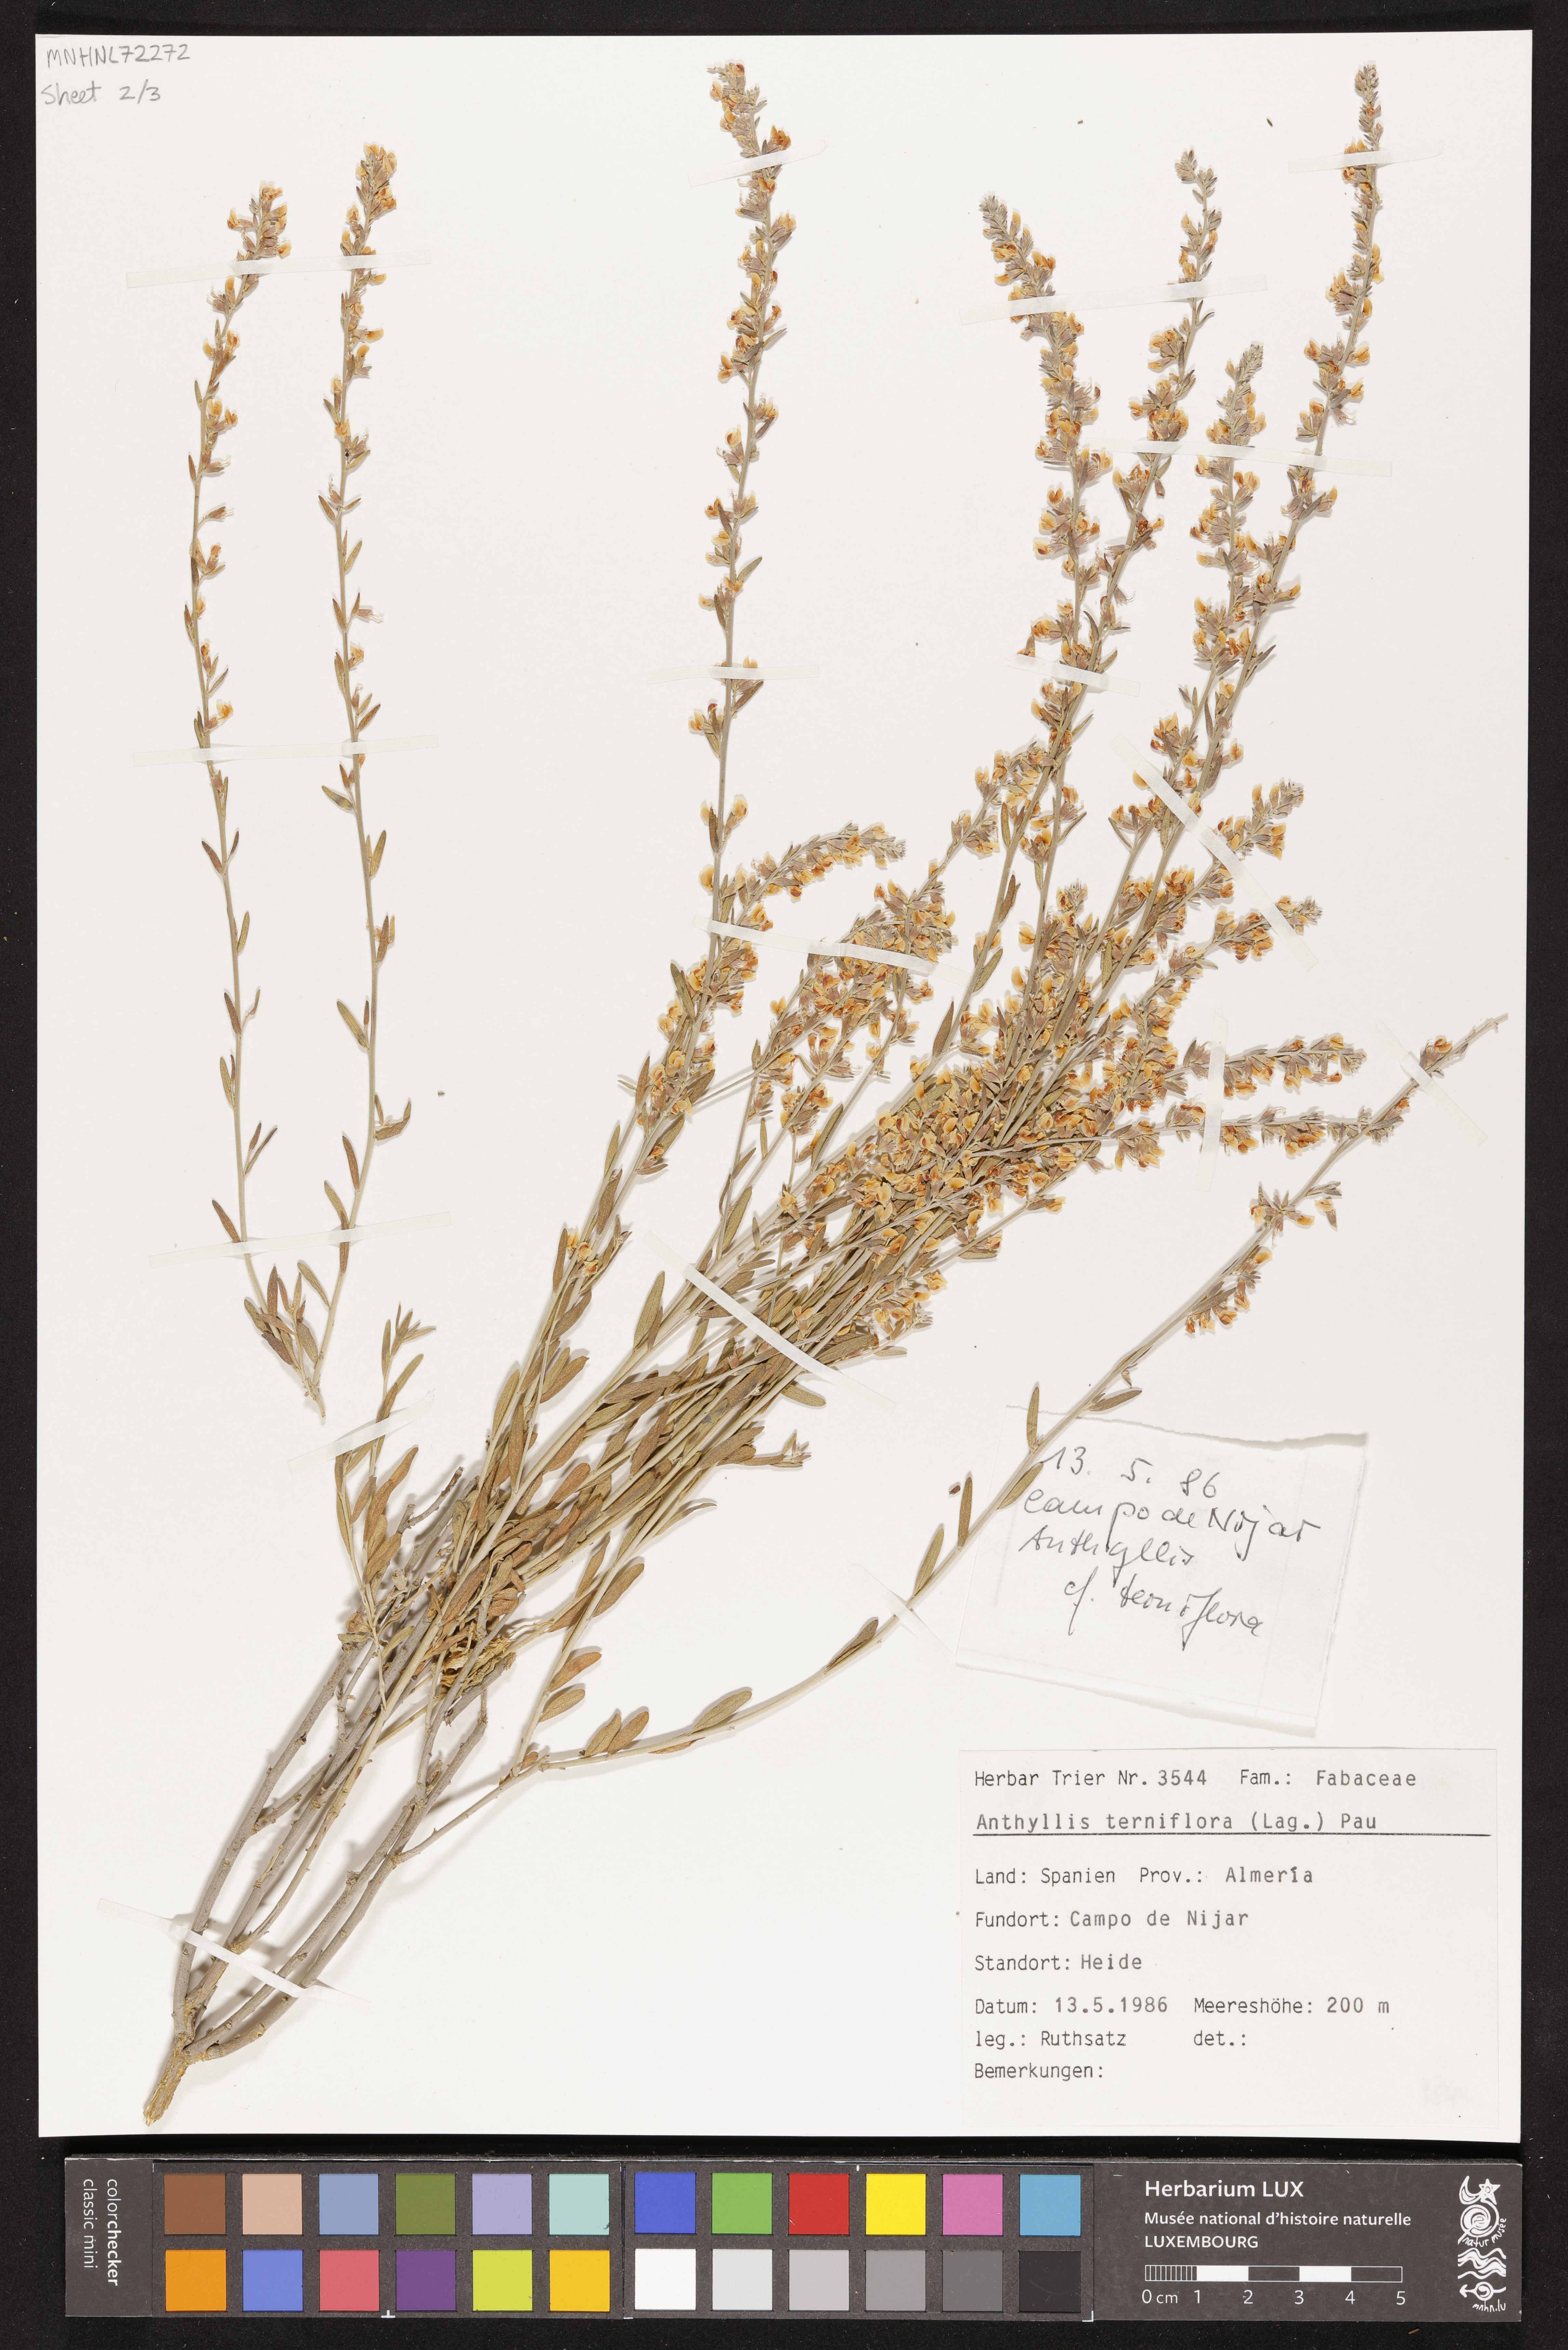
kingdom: Plantae
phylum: Tracheophyta
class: Magnoliopsida
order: Fabales
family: Fabaceae
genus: Anthyllis
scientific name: Anthyllis terniflora
